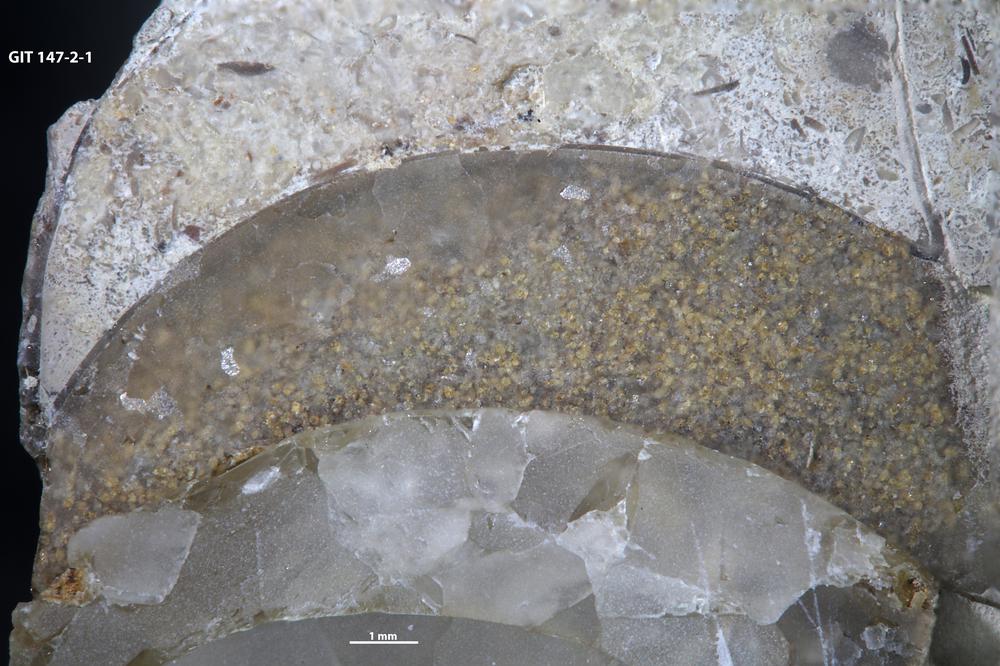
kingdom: Animalia
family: Coprulidae
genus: Coprulus
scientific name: Coprulus
